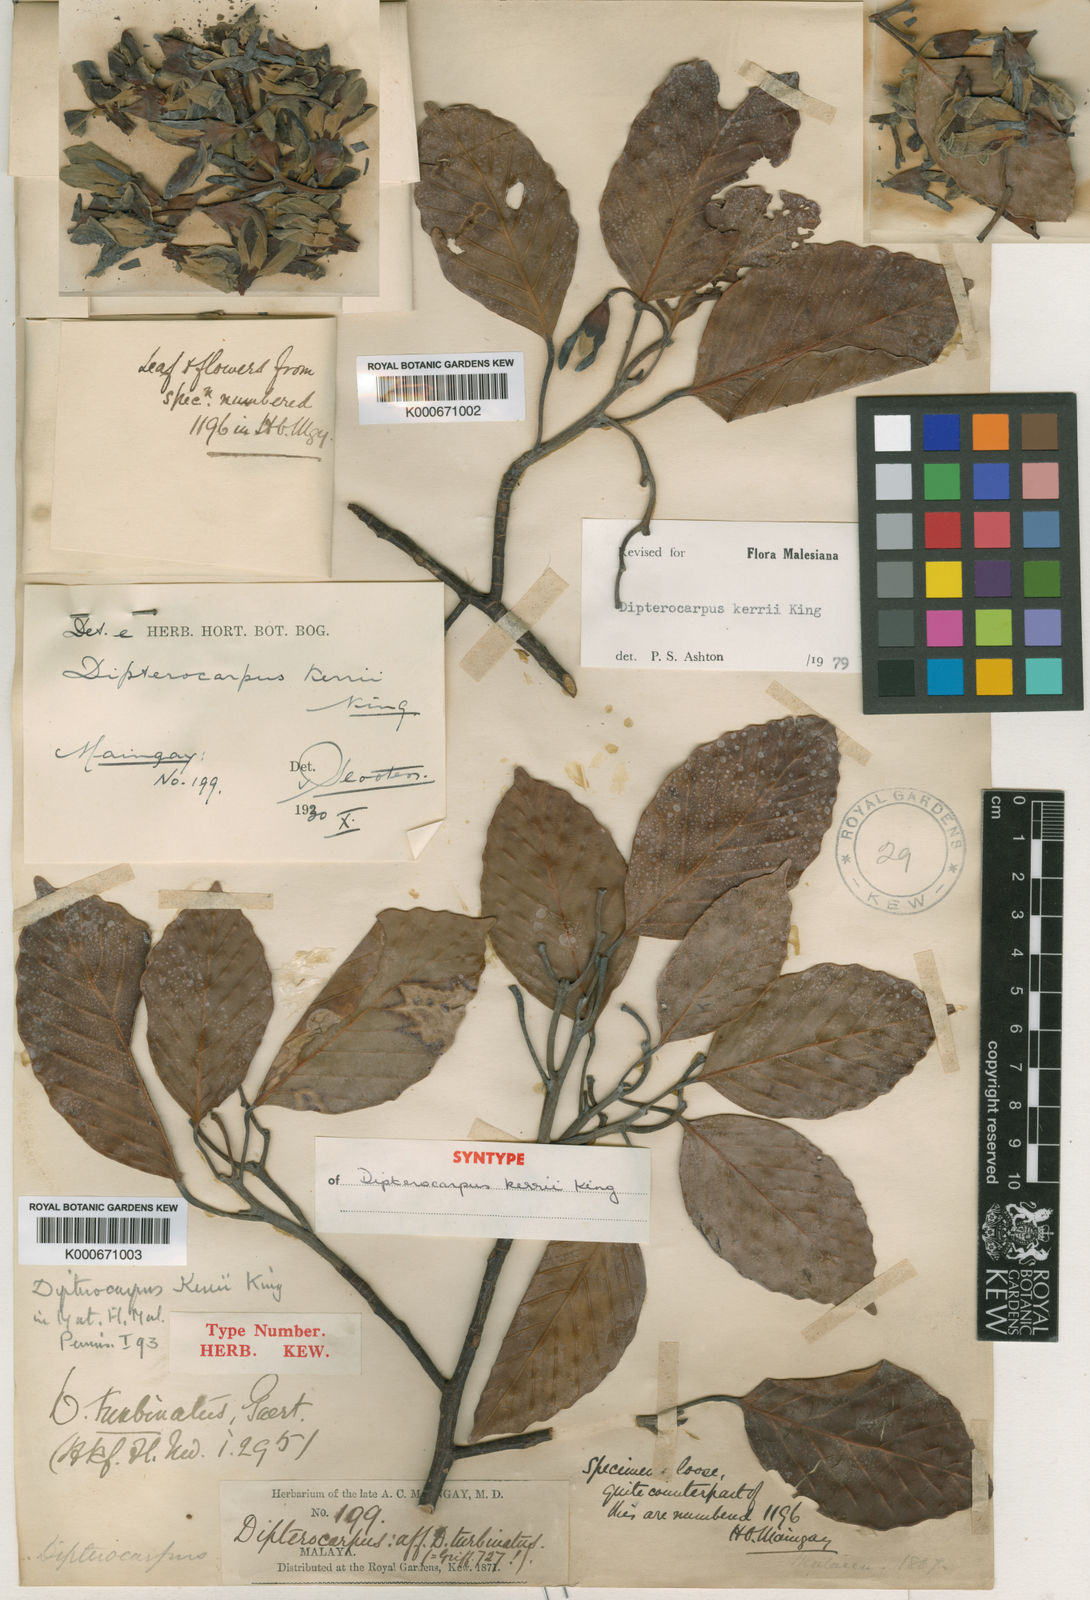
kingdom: Plantae
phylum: Tracheophyta
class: Magnoliopsida
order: Malvales
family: Dipterocarpaceae
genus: Dipterocarpus
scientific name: Dipterocarpus kerrii
